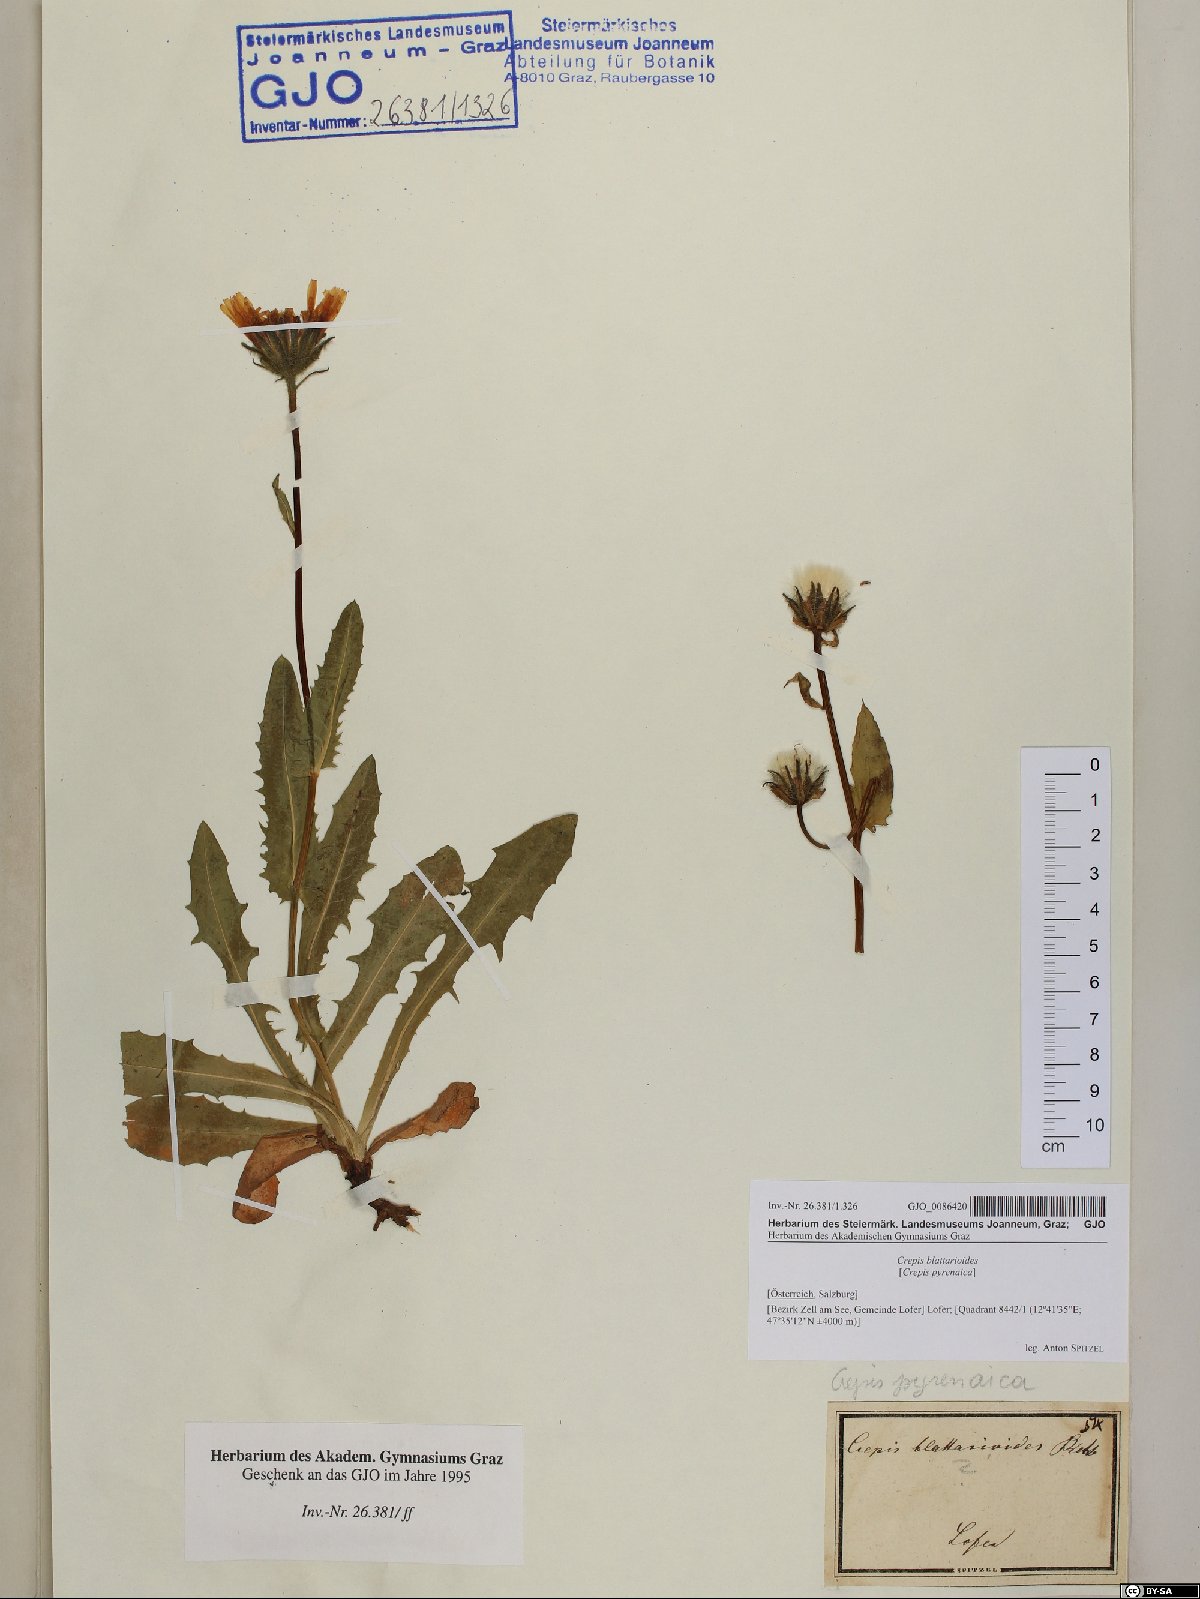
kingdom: Plantae
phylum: Tracheophyta
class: Magnoliopsida
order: Asterales
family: Asteraceae
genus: Crepis
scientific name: Crepis blattarioides
